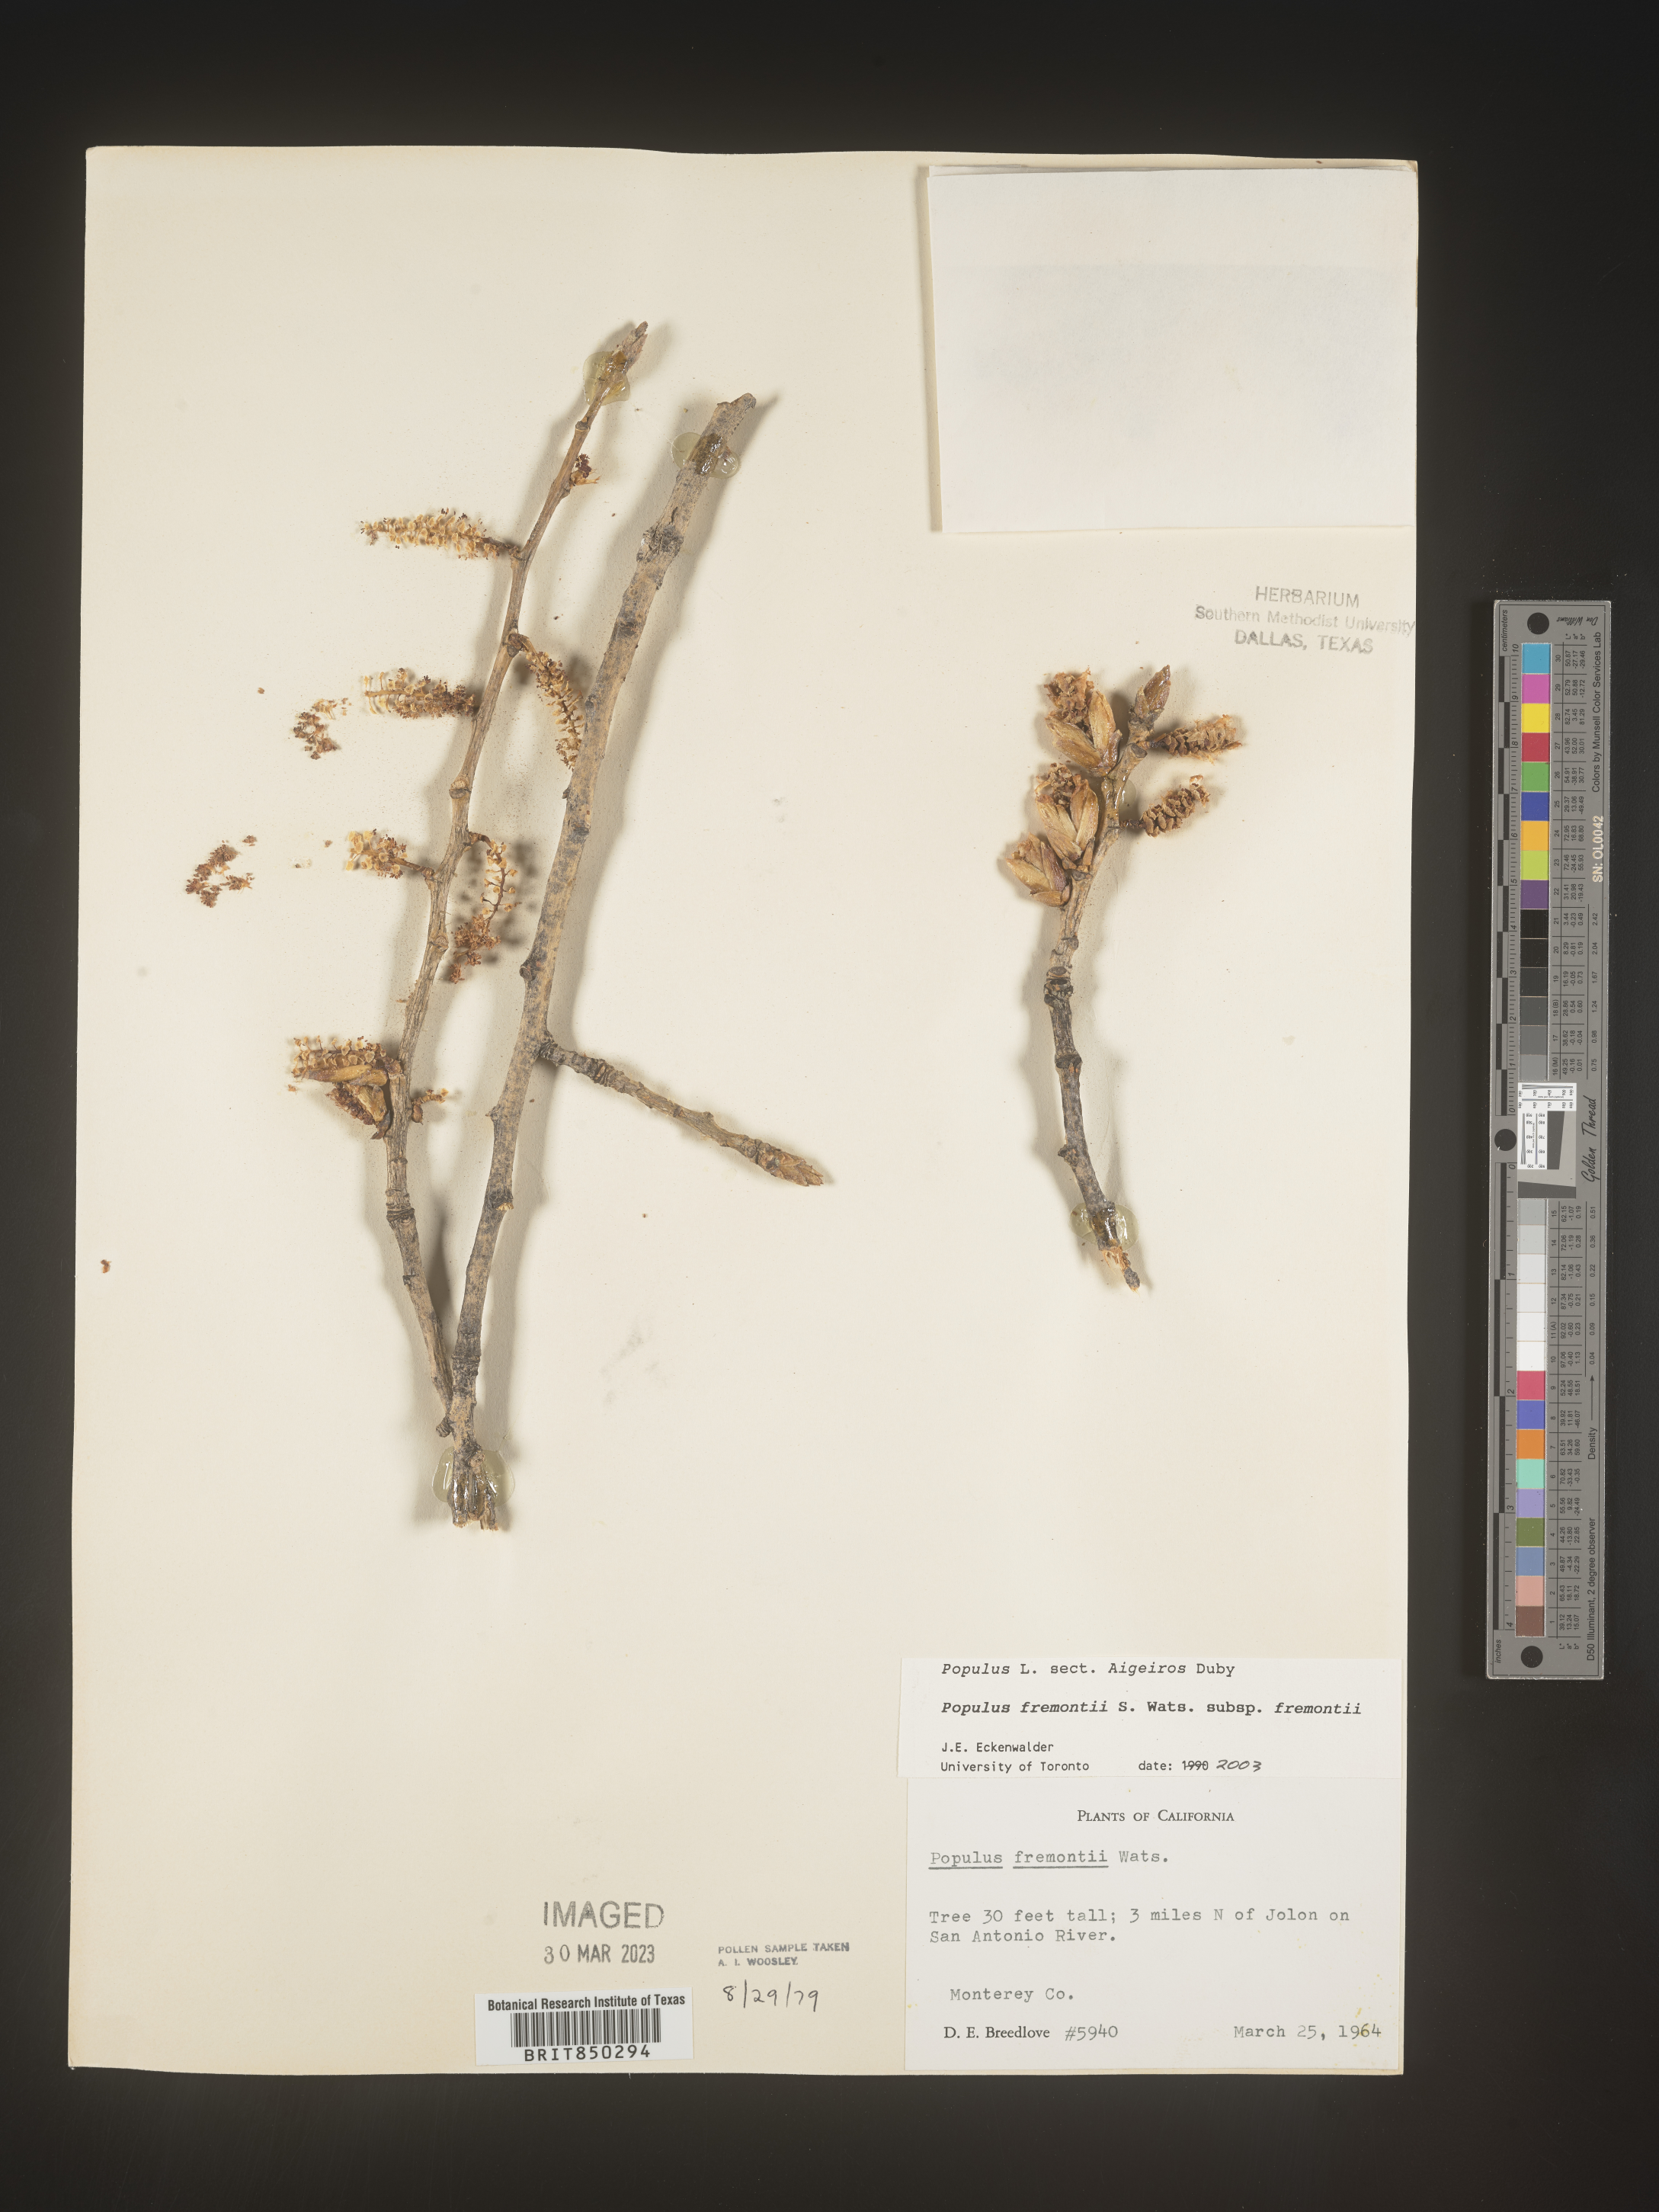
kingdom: Plantae
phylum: Tracheophyta
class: Magnoliopsida
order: Malpighiales
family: Salicaceae
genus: Populus
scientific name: Populus fremontii
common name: Fremont's cottonwood
